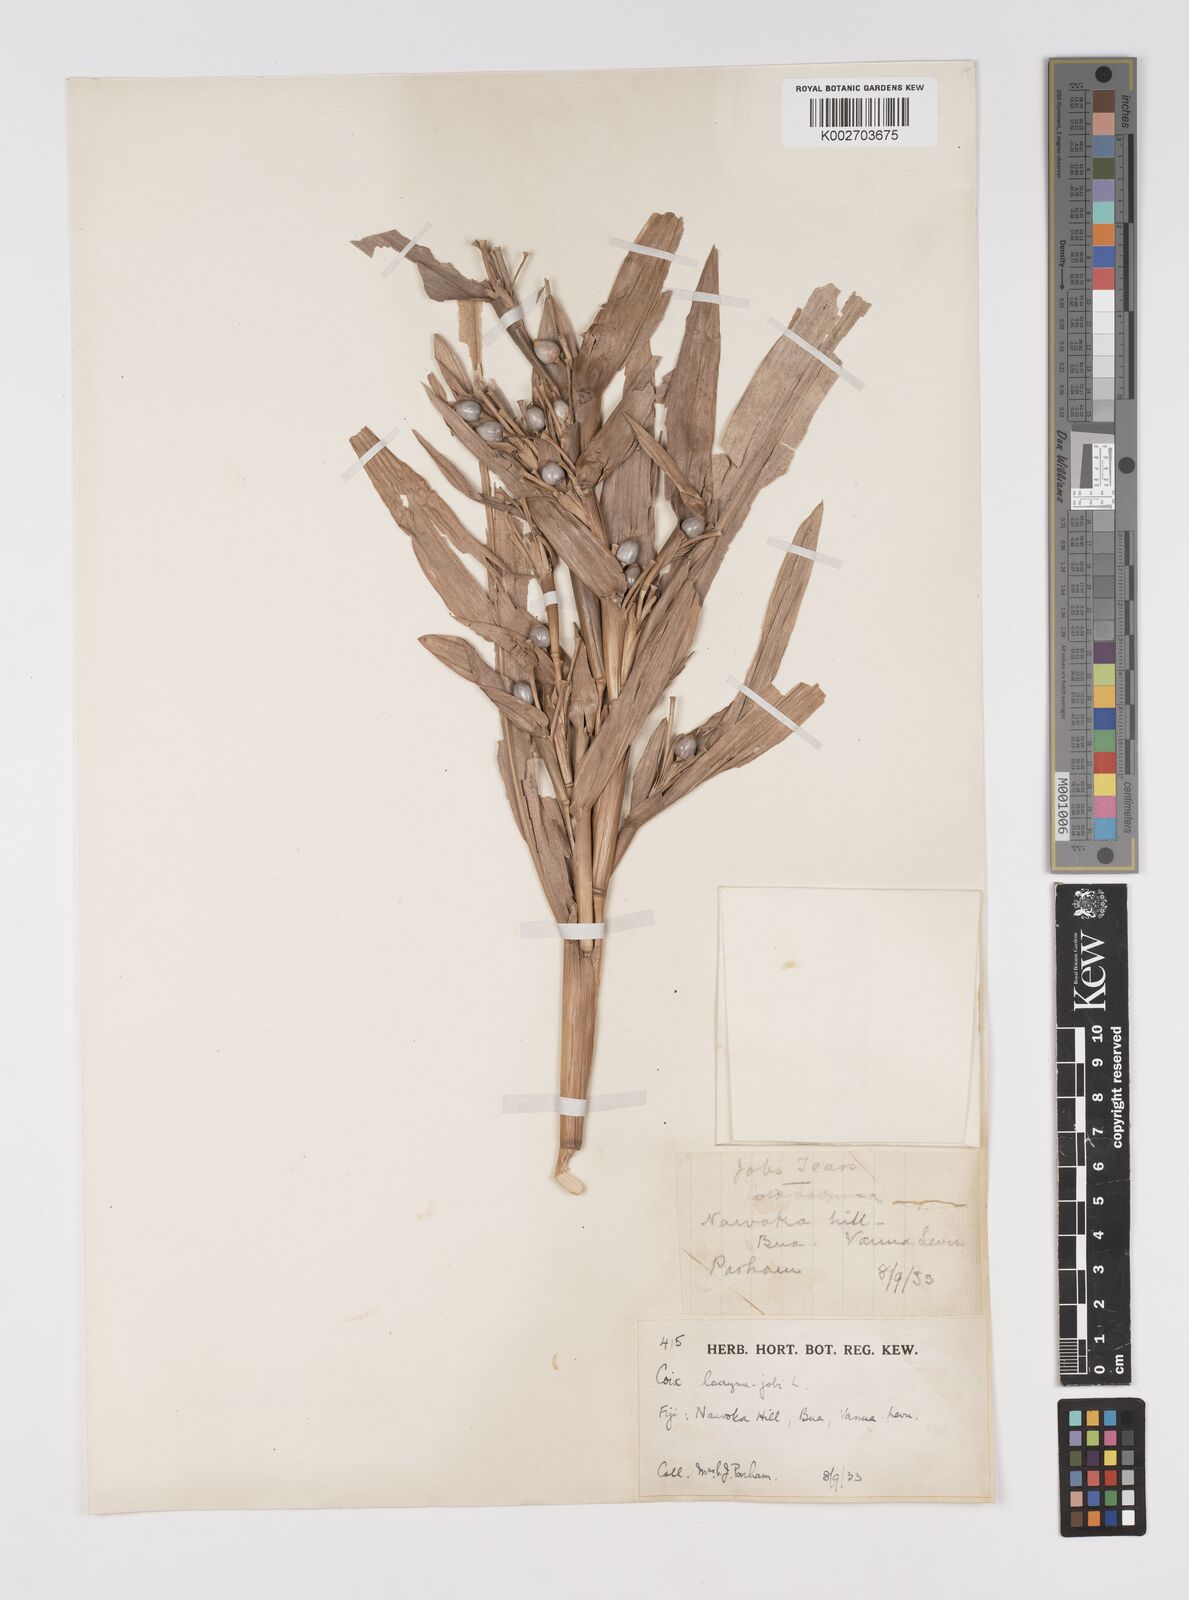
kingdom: Plantae
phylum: Tracheophyta
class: Liliopsida
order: Poales
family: Poaceae
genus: Coix
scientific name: Coix lacryma-jobi
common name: Job's tears
